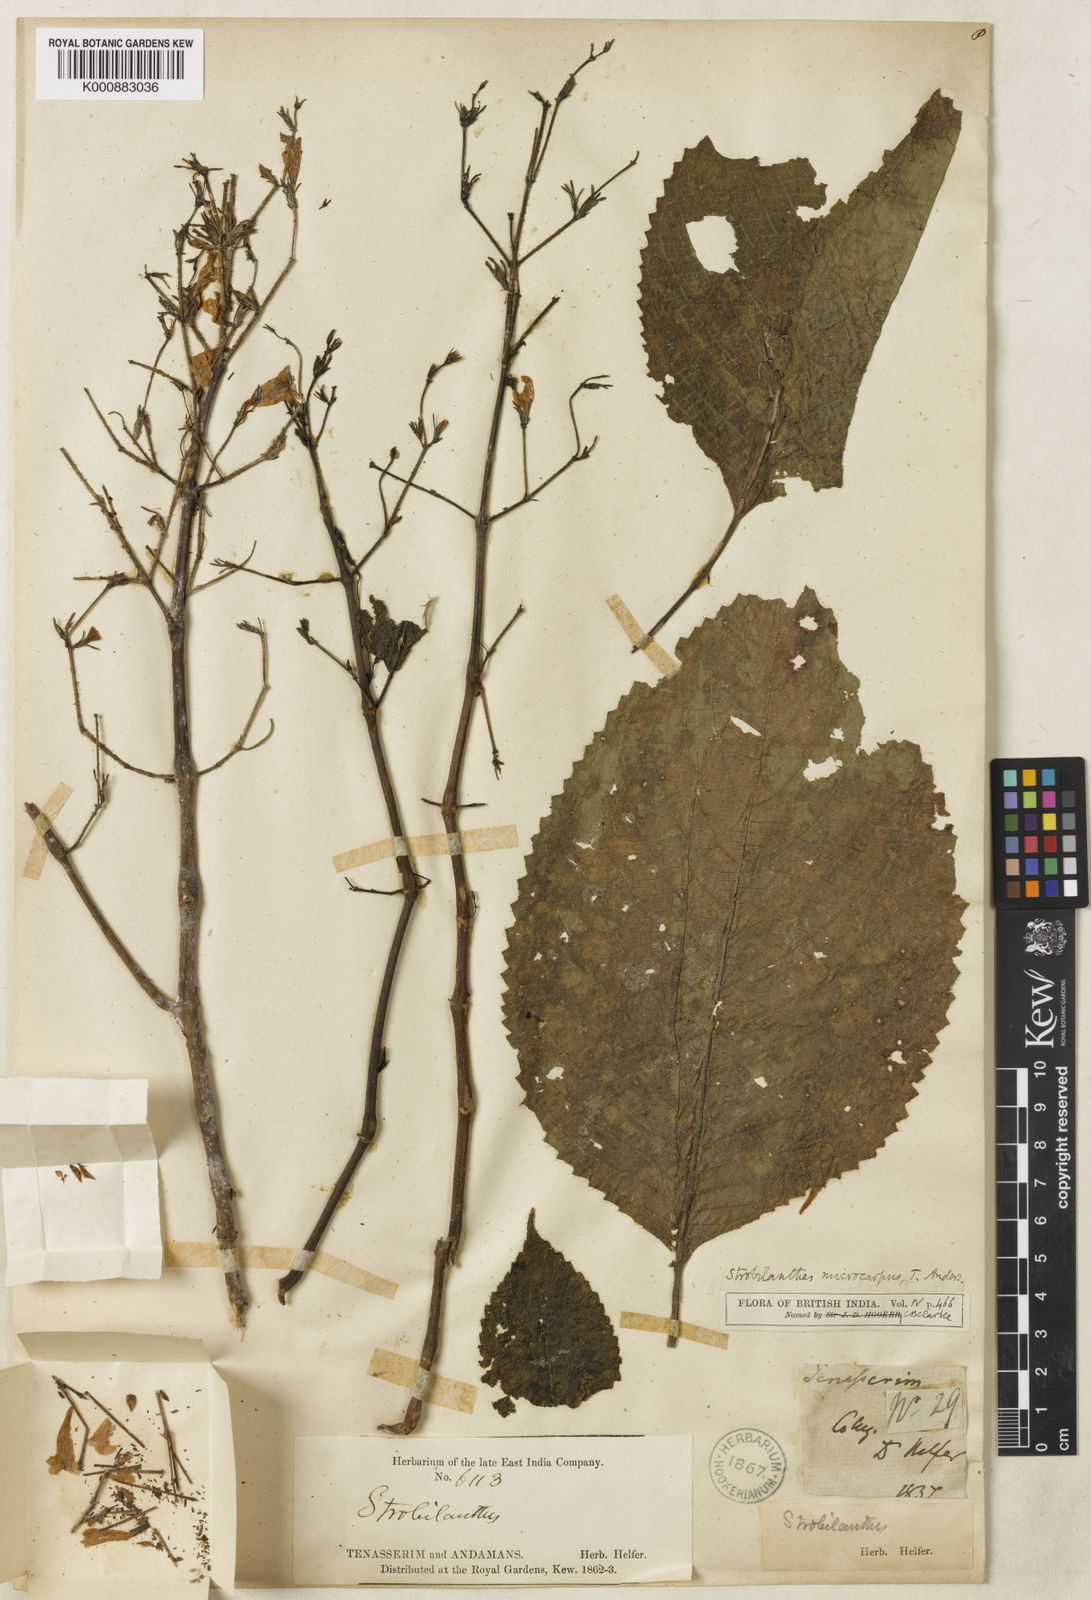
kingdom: Plantae
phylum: Tracheophyta
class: Magnoliopsida
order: Lamiales
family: Acanthaceae
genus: Strobilanthes
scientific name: Strobilanthes microcarpa
